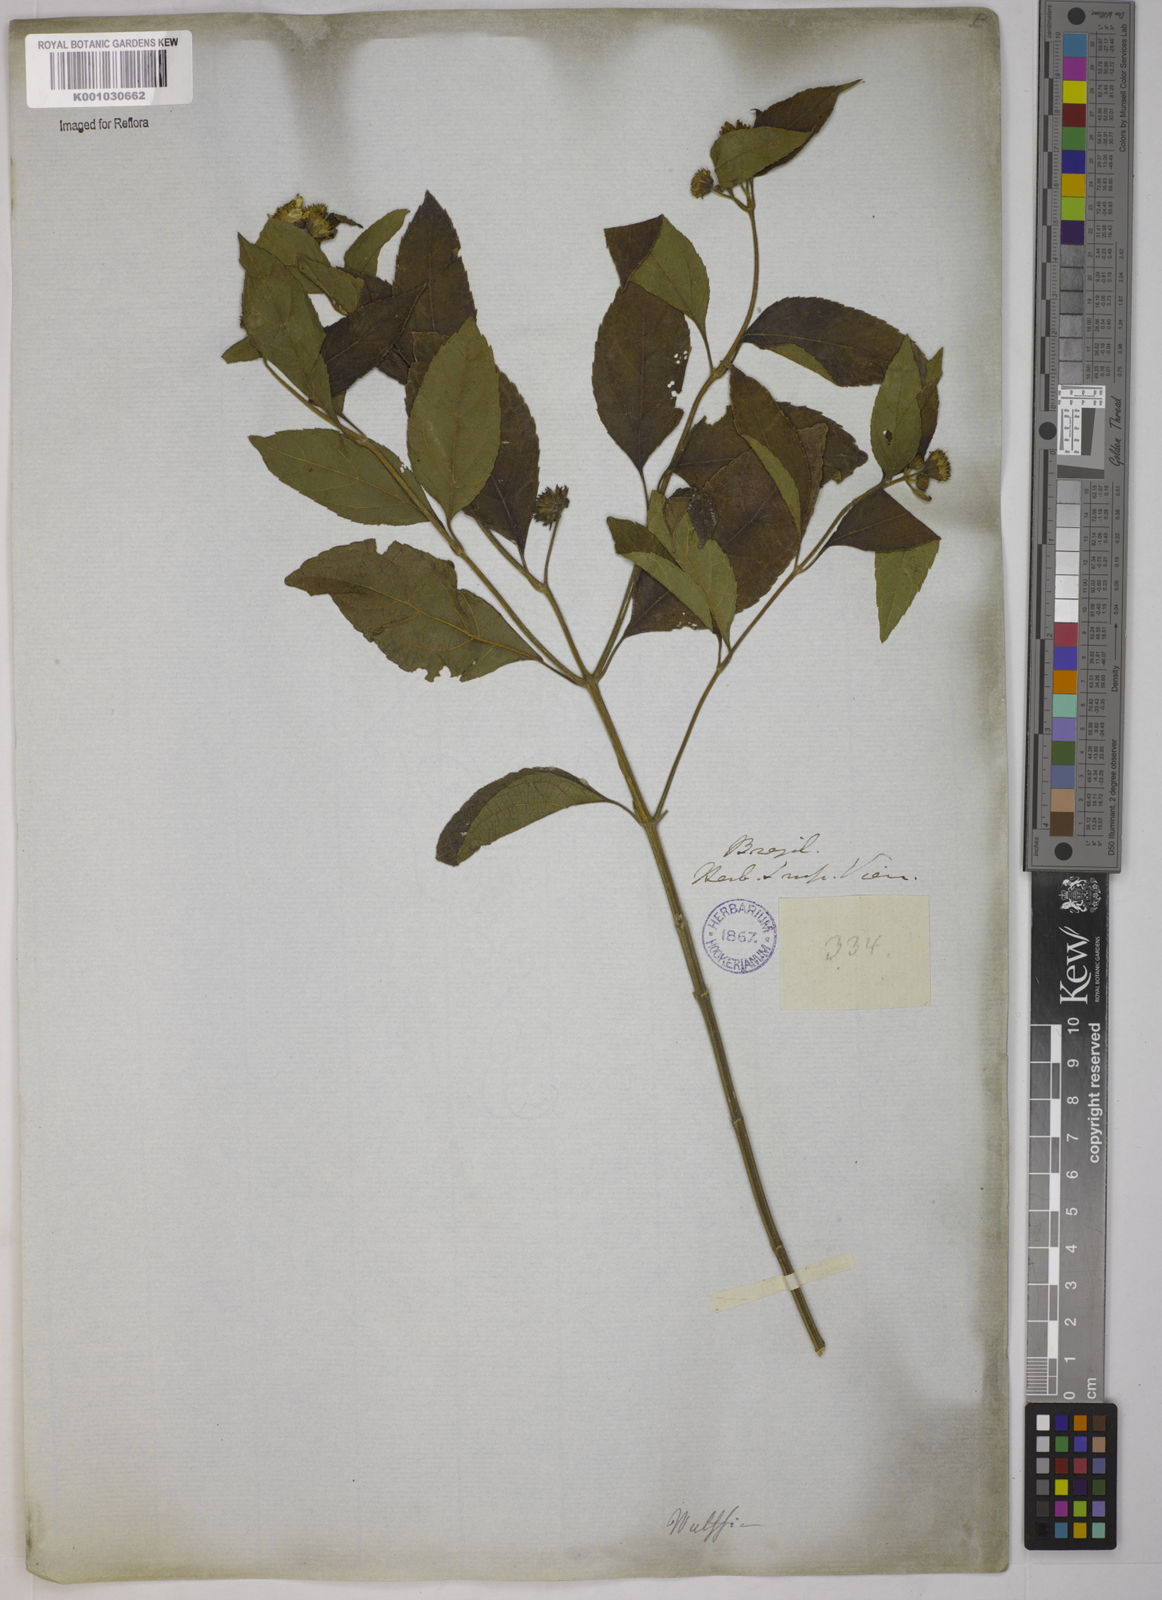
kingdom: Plantae
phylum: Tracheophyta
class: Magnoliopsida
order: Asterales
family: Asteraceae
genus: Tilesia
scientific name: Tilesia baccata
